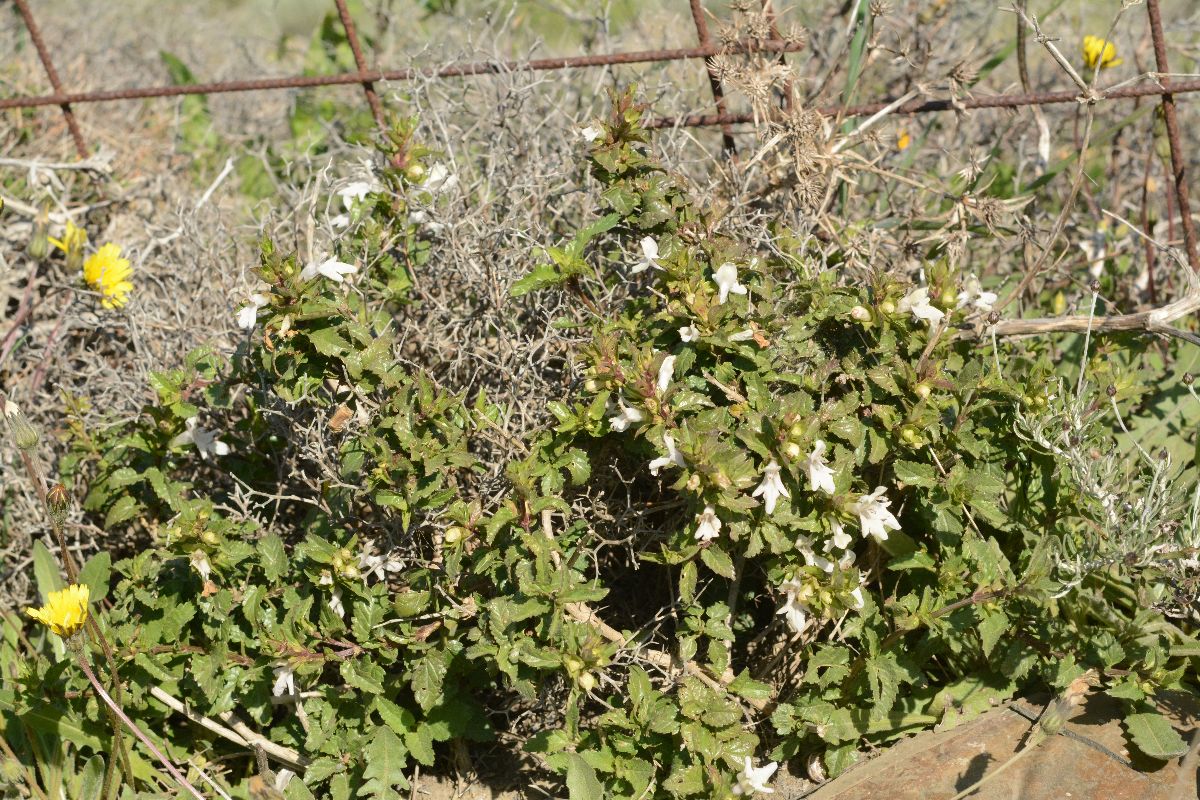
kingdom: Plantae
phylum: Tracheophyta
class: Magnoliopsida
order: Lamiales
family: Lamiaceae
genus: Prasium
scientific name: Prasium majus
